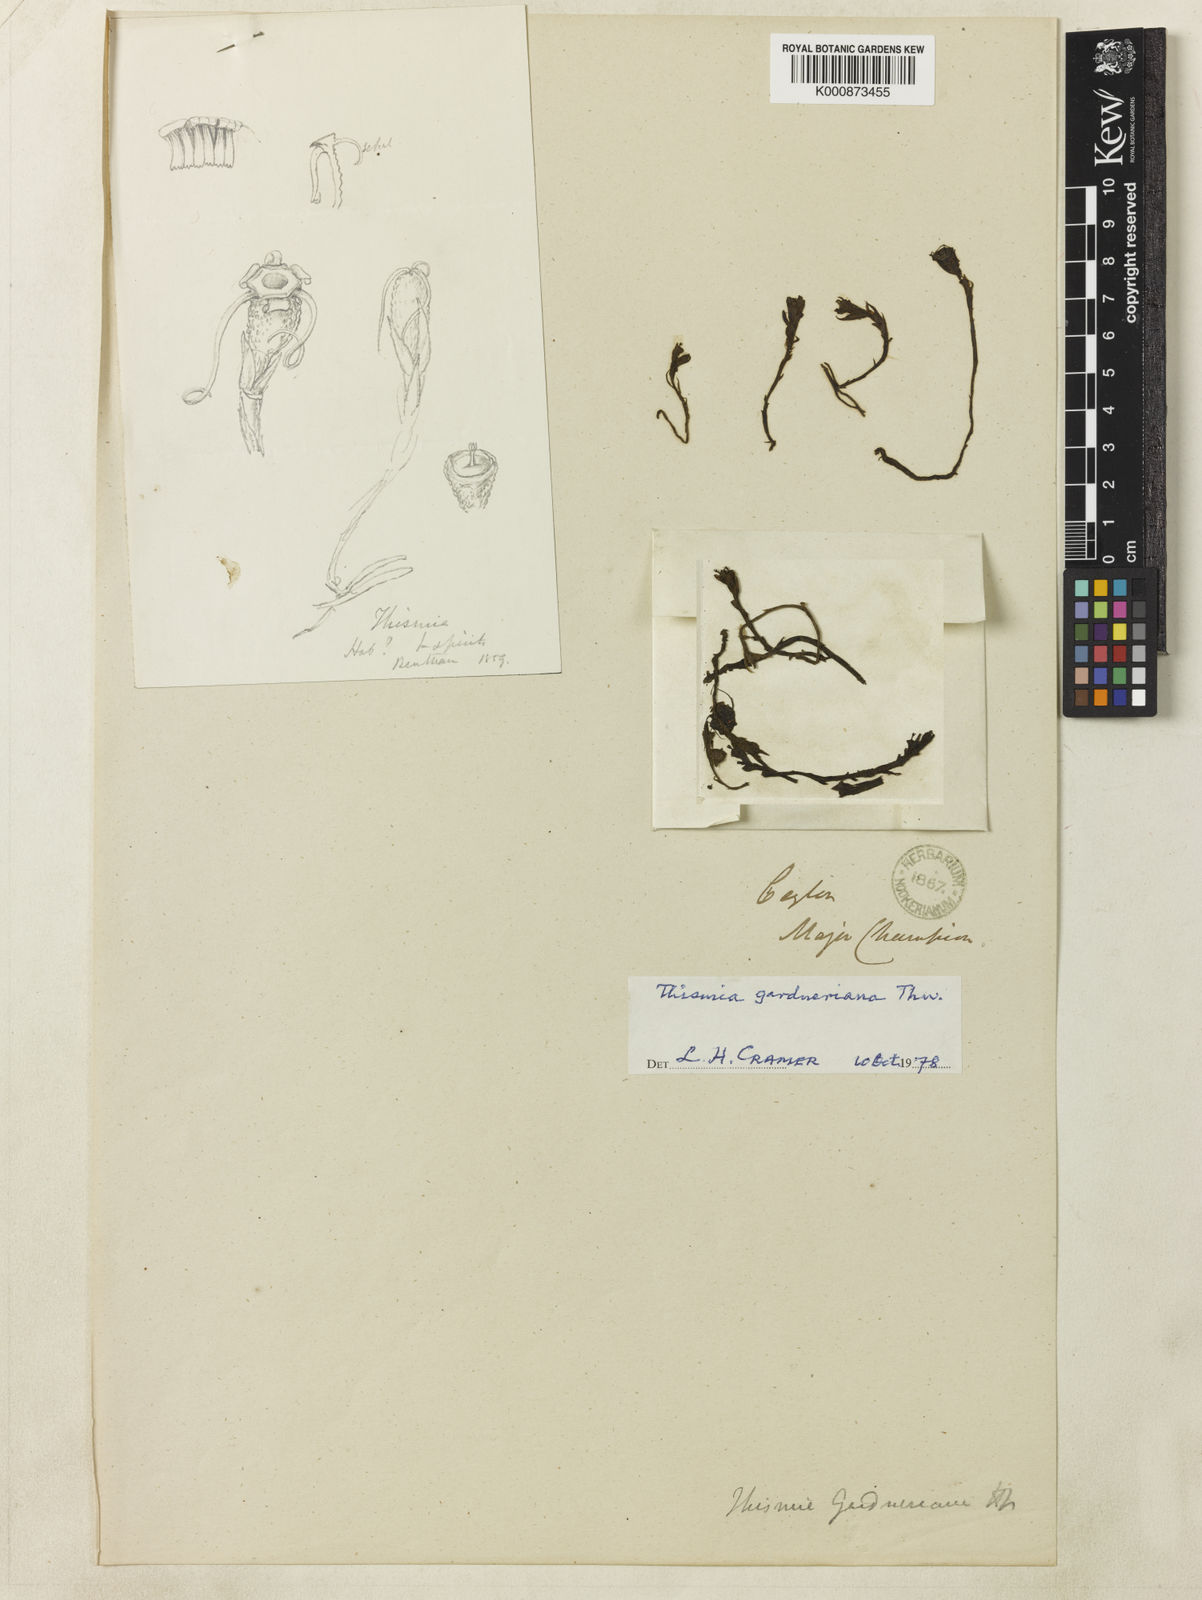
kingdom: Plantae
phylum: Tracheophyta
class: Liliopsida
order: Dioscoreales
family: Burmanniaceae
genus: Thismia
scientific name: Thismia gardneriana
